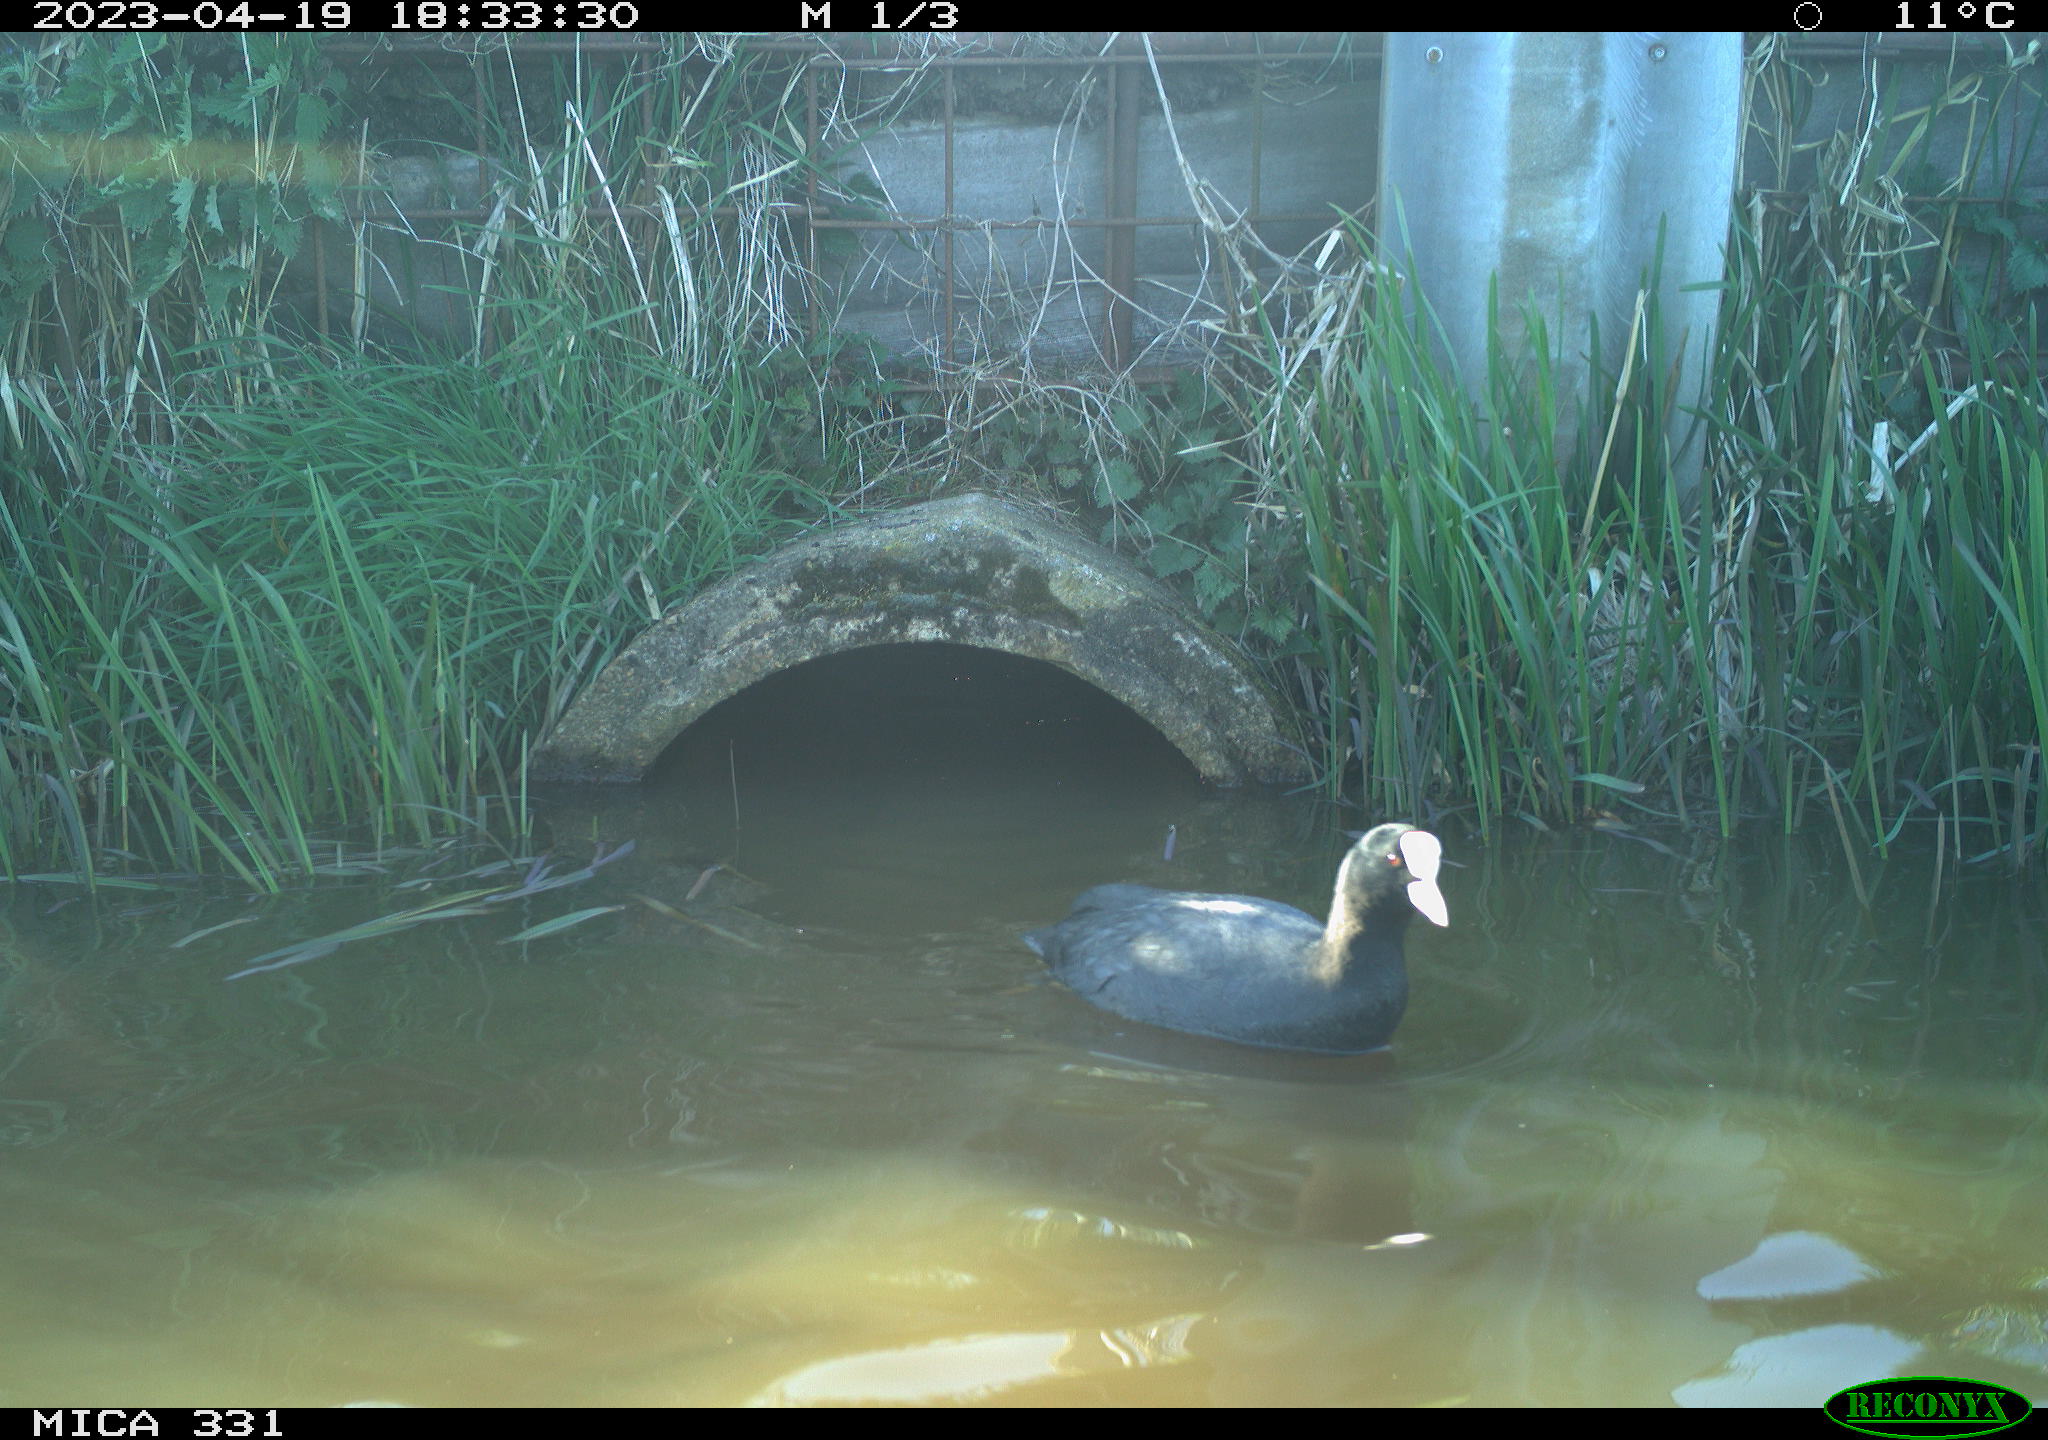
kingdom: Animalia
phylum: Chordata
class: Aves
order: Gruiformes
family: Rallidae
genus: Gallinula
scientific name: Gallinula chloropus
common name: Common moorhen
